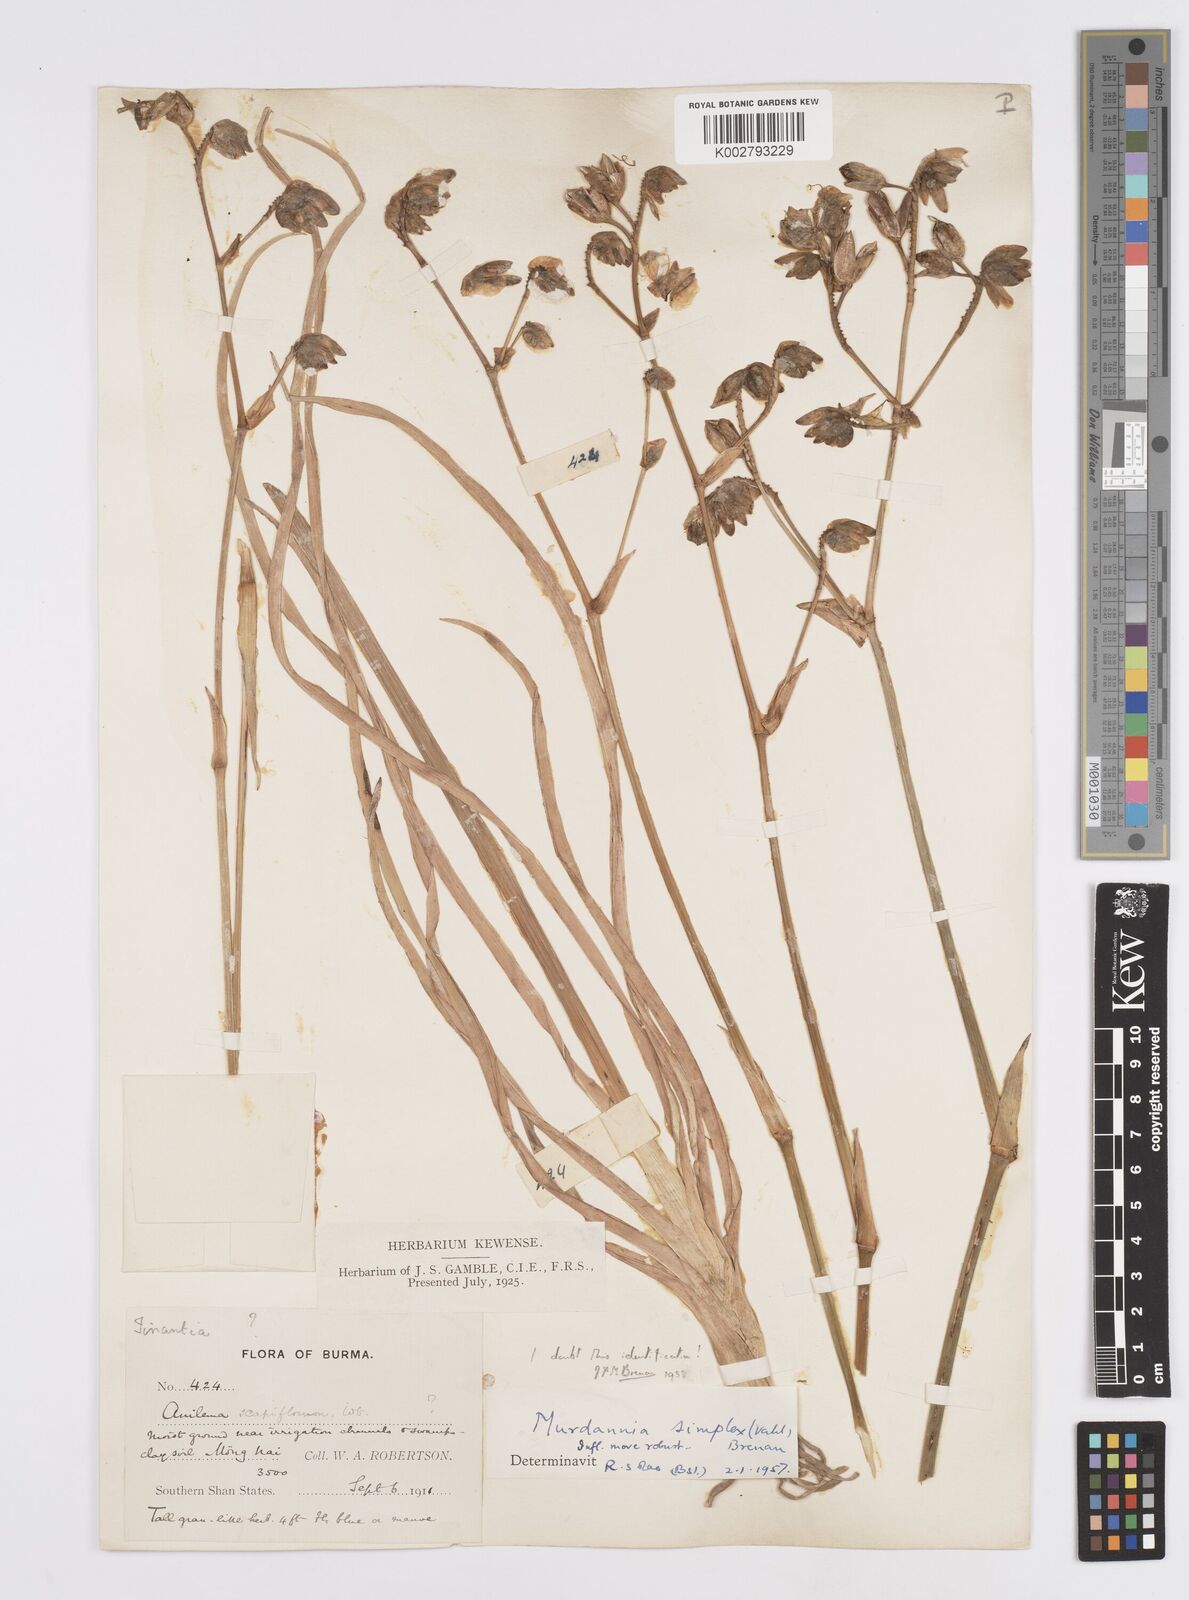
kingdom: Plantae
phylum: Tracheophyta
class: Liliopsida
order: Commelinales
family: Commelinaceae
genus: Murdannia
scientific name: Murdannia gigantea
